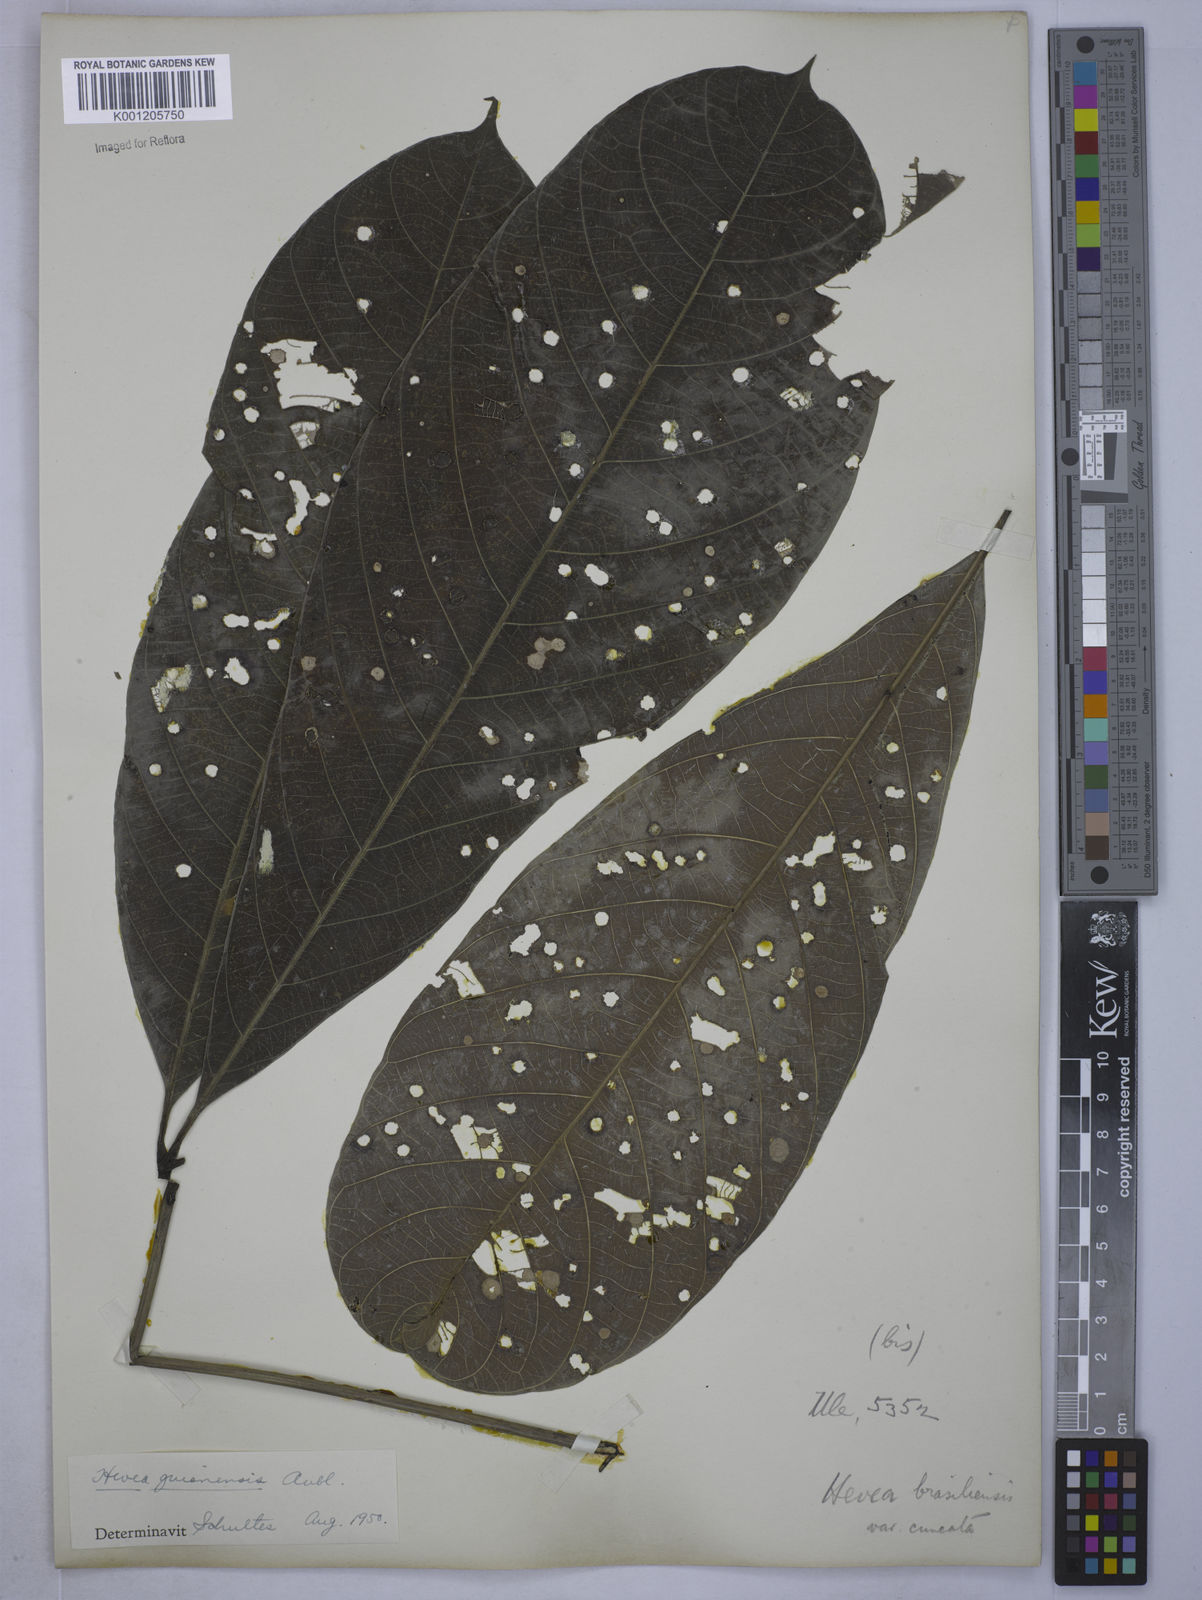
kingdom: Plantae
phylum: Tracheophyta
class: Magnoliopsida
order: Malpighiales
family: Euphorbiaceae
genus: Hevea
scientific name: Hevea guianensis
